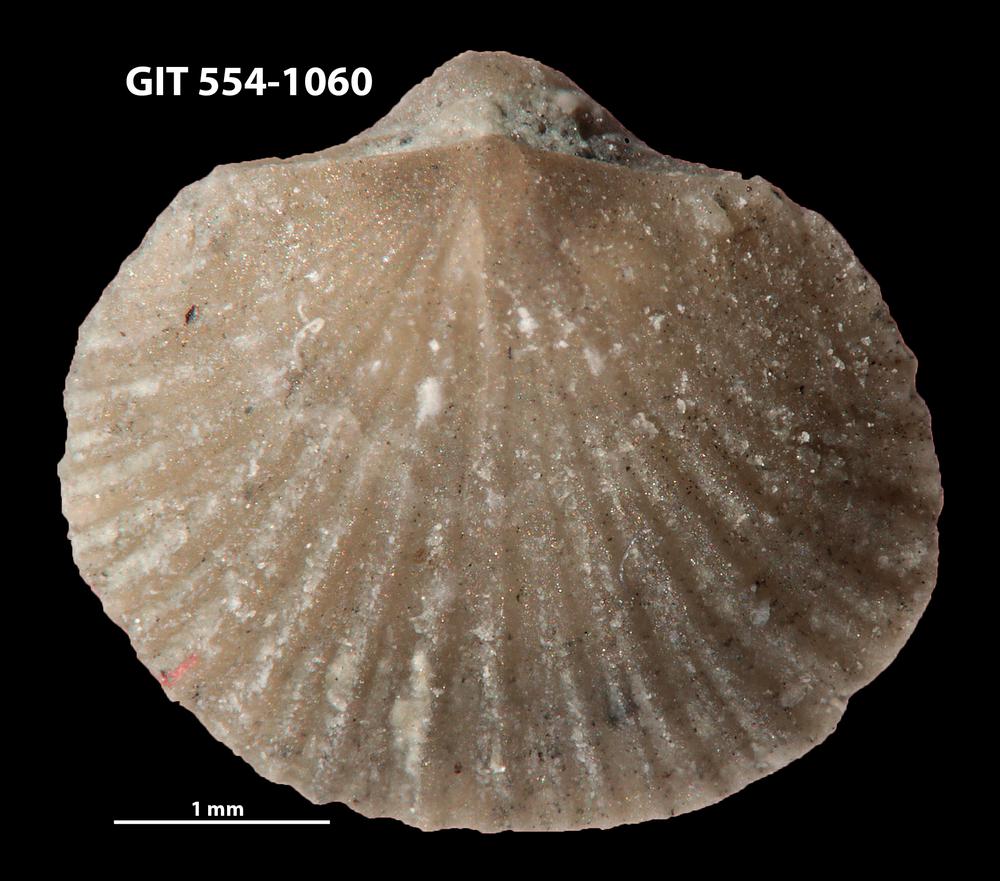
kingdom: Animalia
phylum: Brachiopoda
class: Rhynchonellata
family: Rhipidomellidae
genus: Mendacella
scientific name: Mendacella circularis
